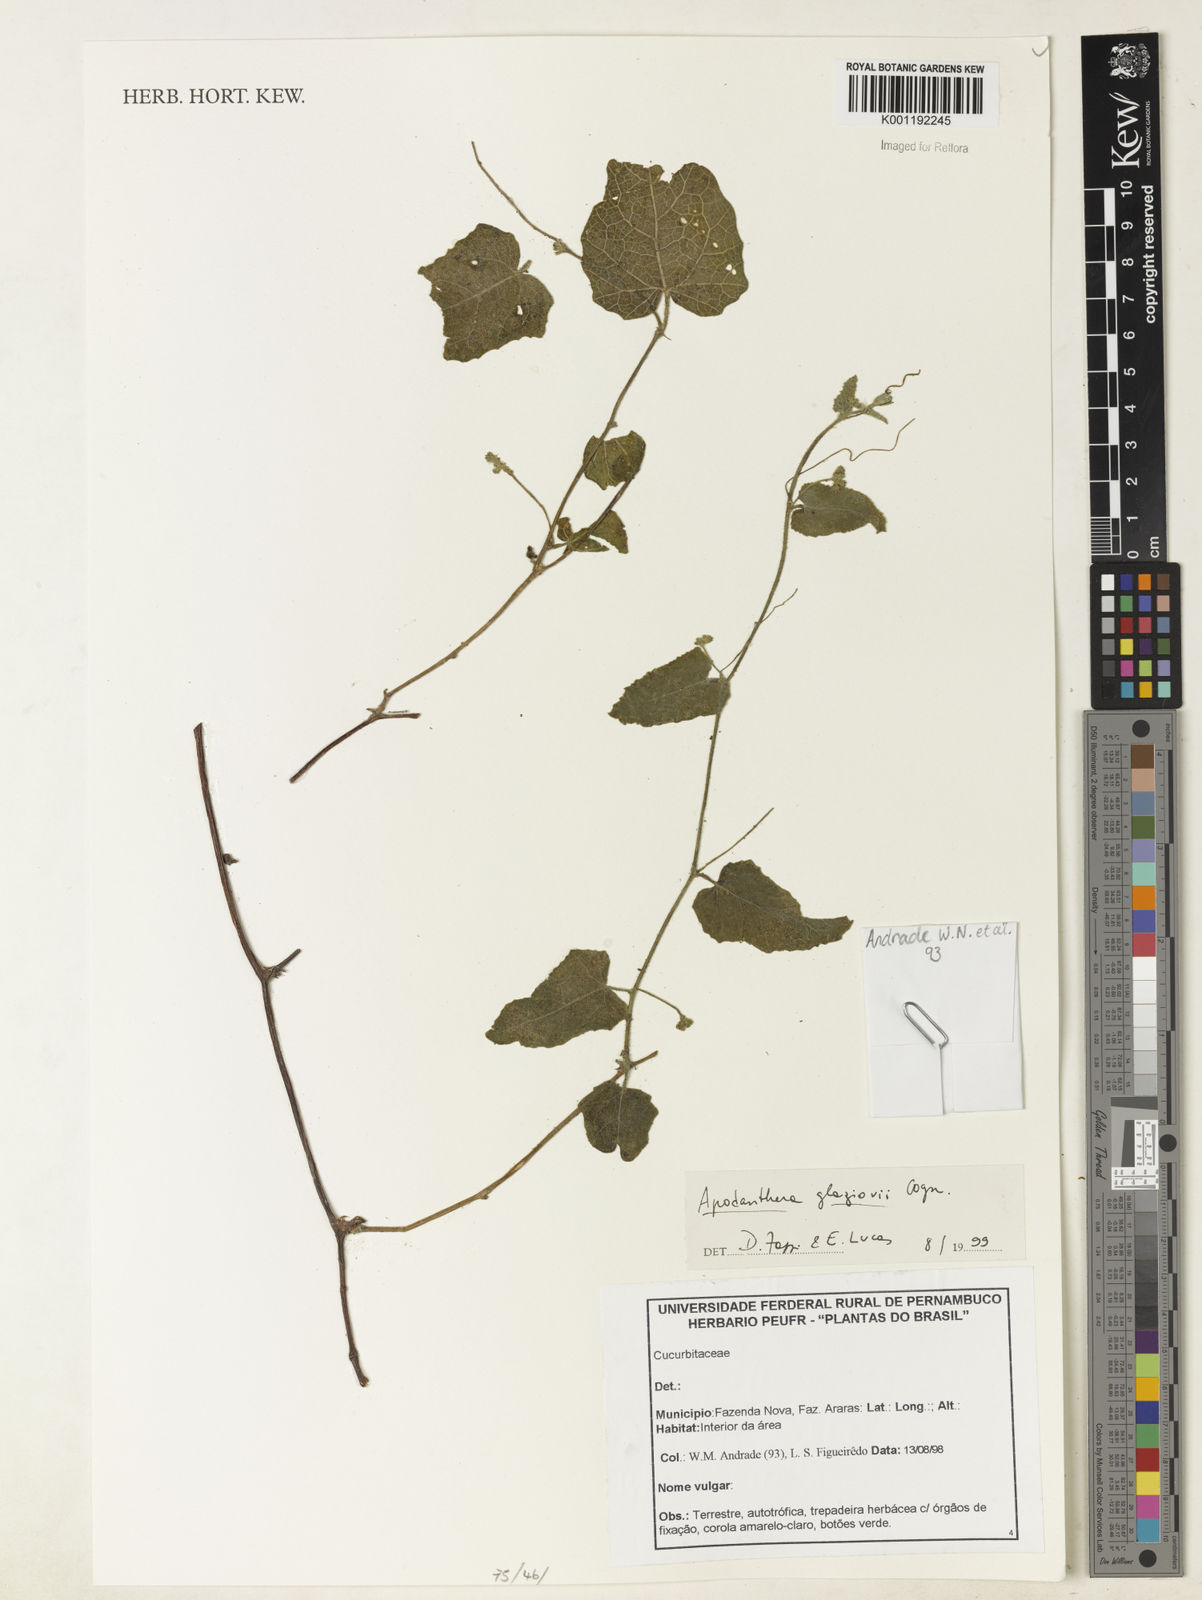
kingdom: Plantae
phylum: Tracheophyta
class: Magnoliopsida
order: Cucurbitales
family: Cucurbitaceae
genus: Apodanthera
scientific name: Apodanthera glaziovii
